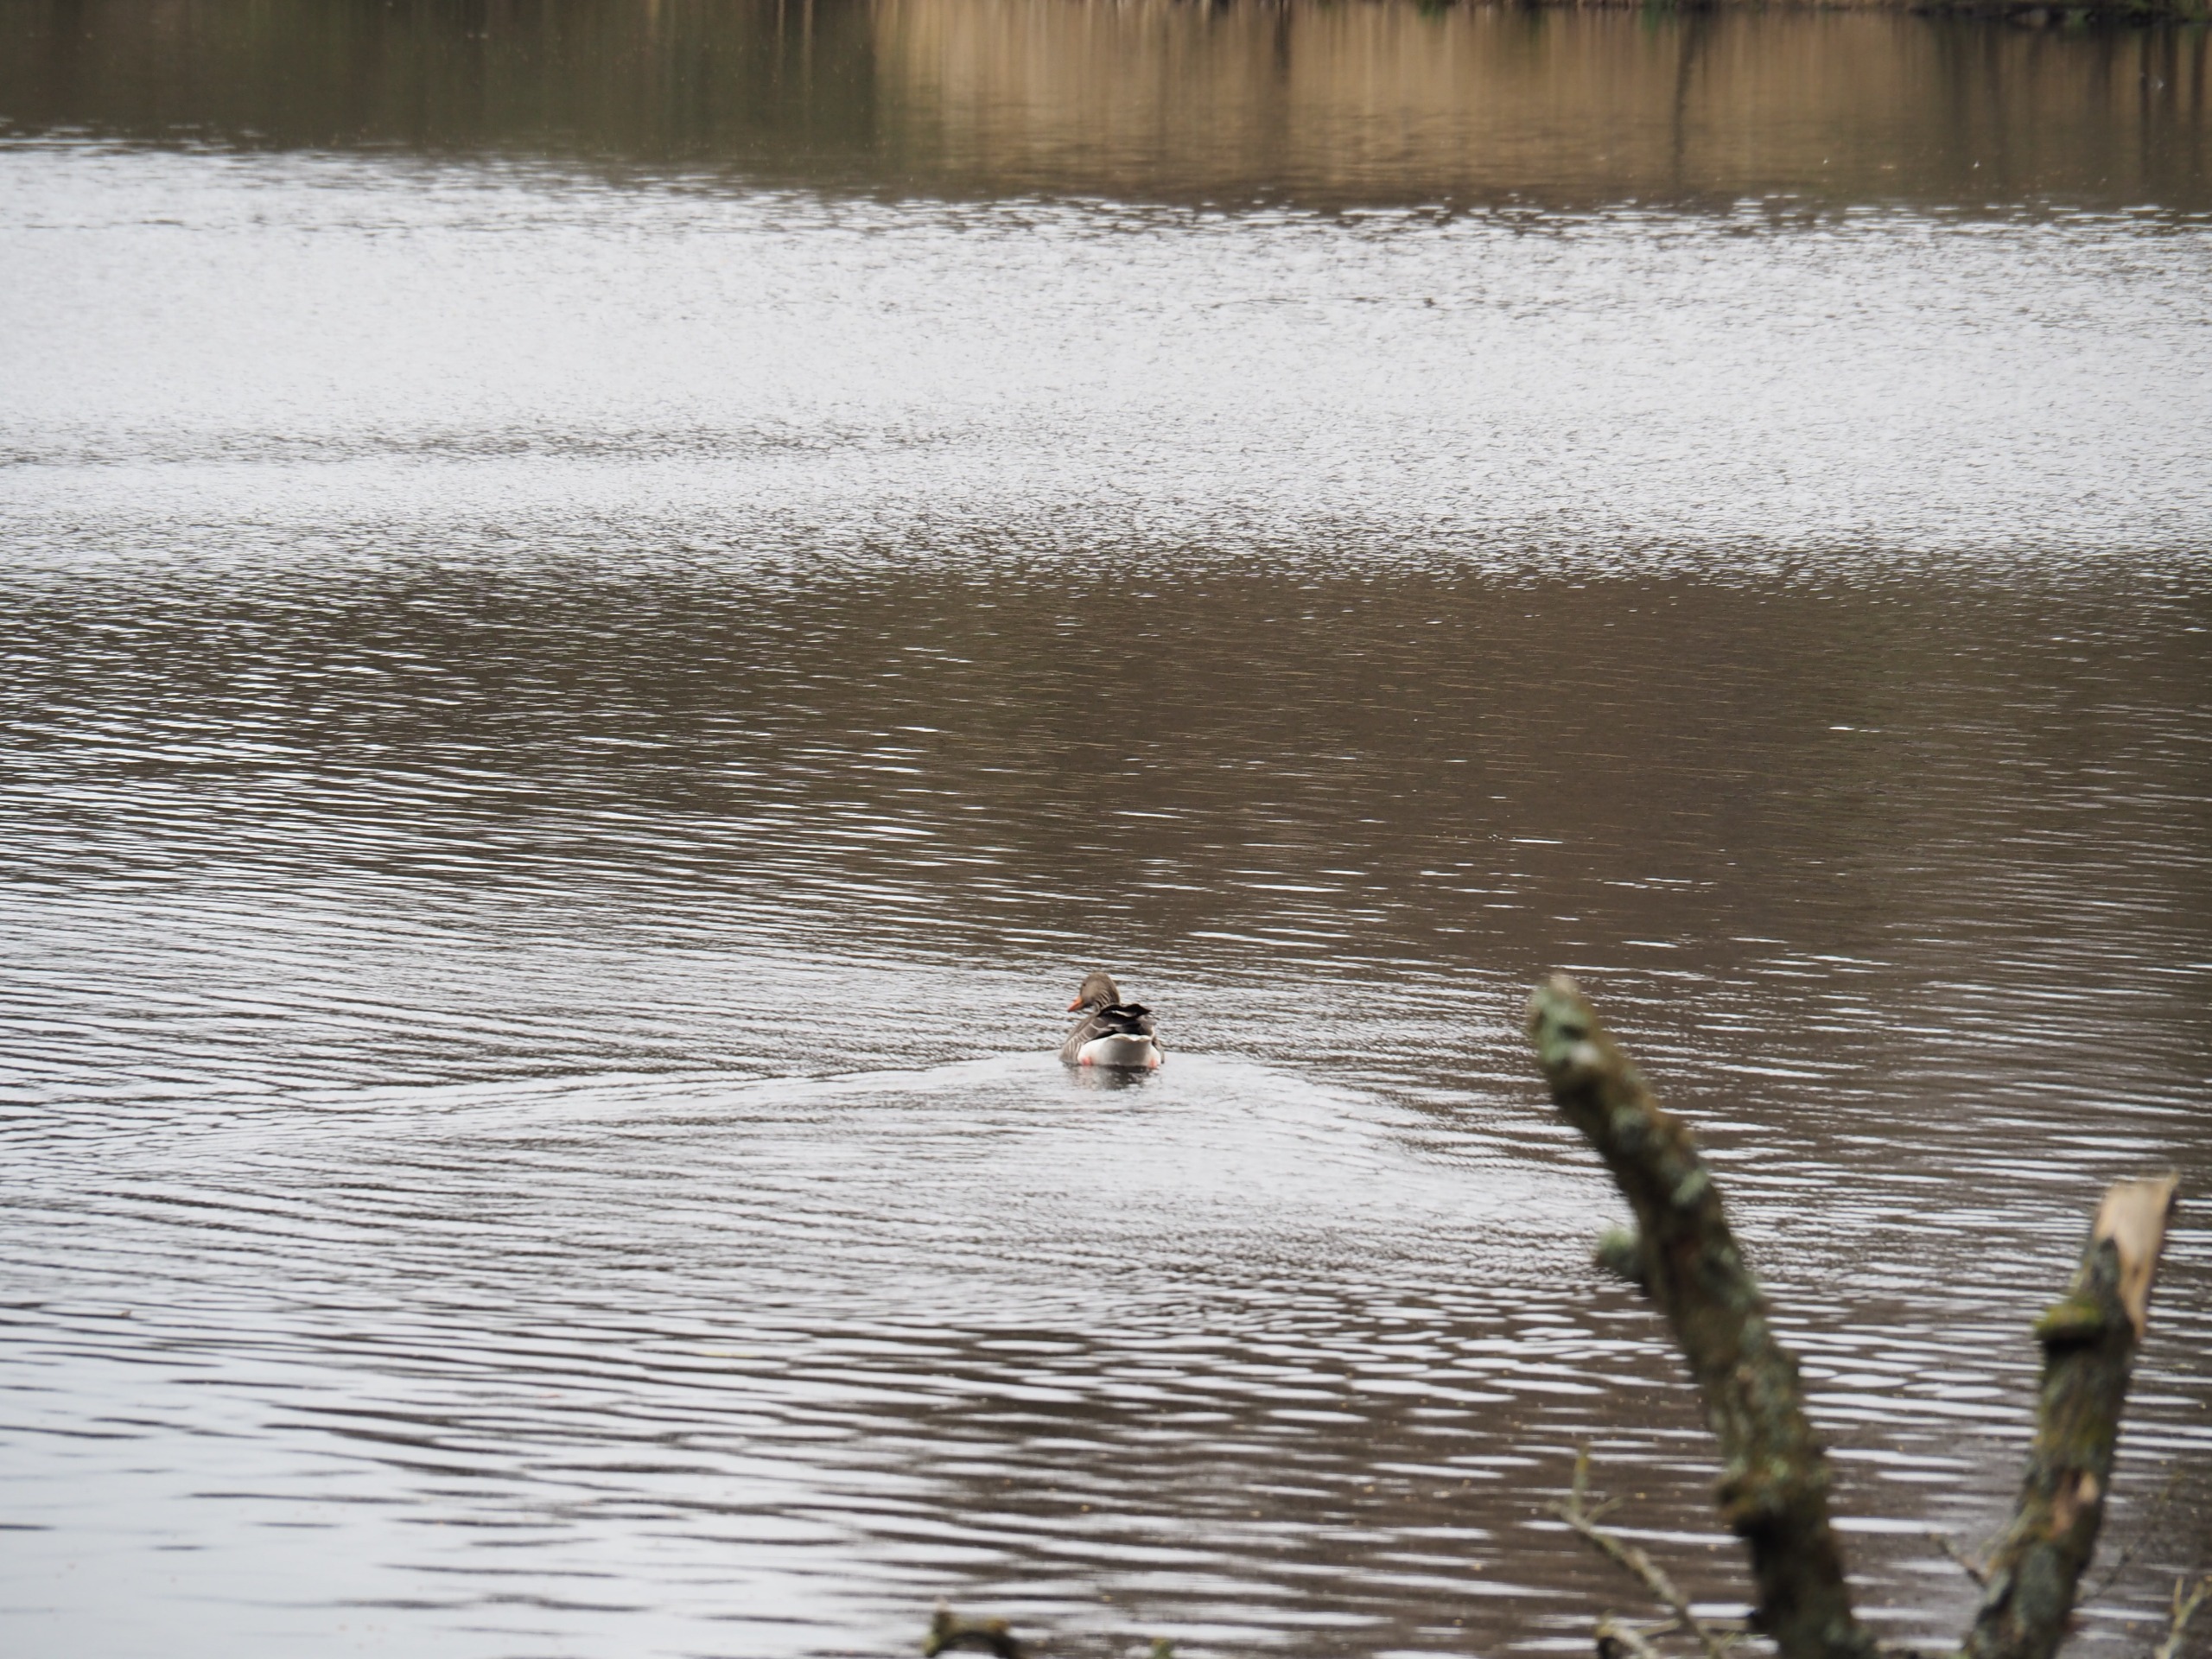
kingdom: Animalia
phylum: Chordata
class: Aves
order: Anseriformes
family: Anatidae
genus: Anser
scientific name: Anser anser
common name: Grågås
